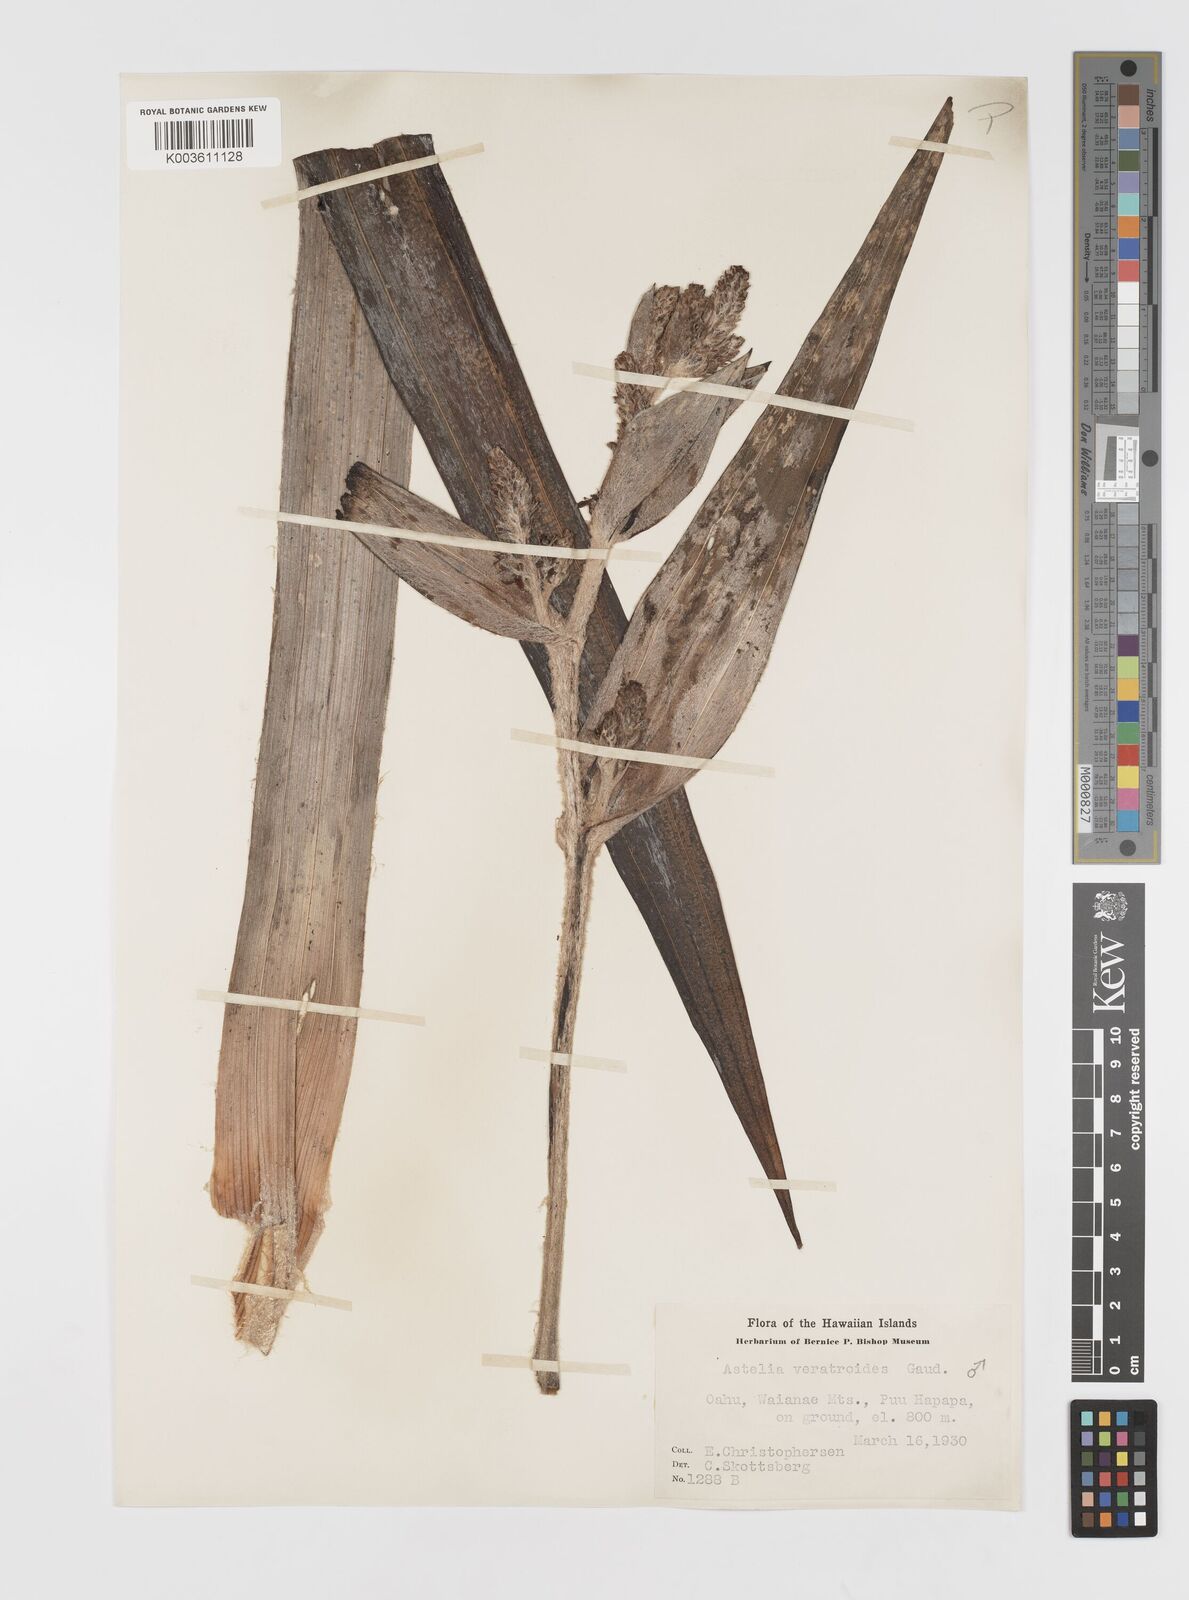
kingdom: Plantae
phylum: Tracheophyta
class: Liliopsida
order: Asparagales
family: Asteliaceae
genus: Astelia
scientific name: Astelia menziesiana
